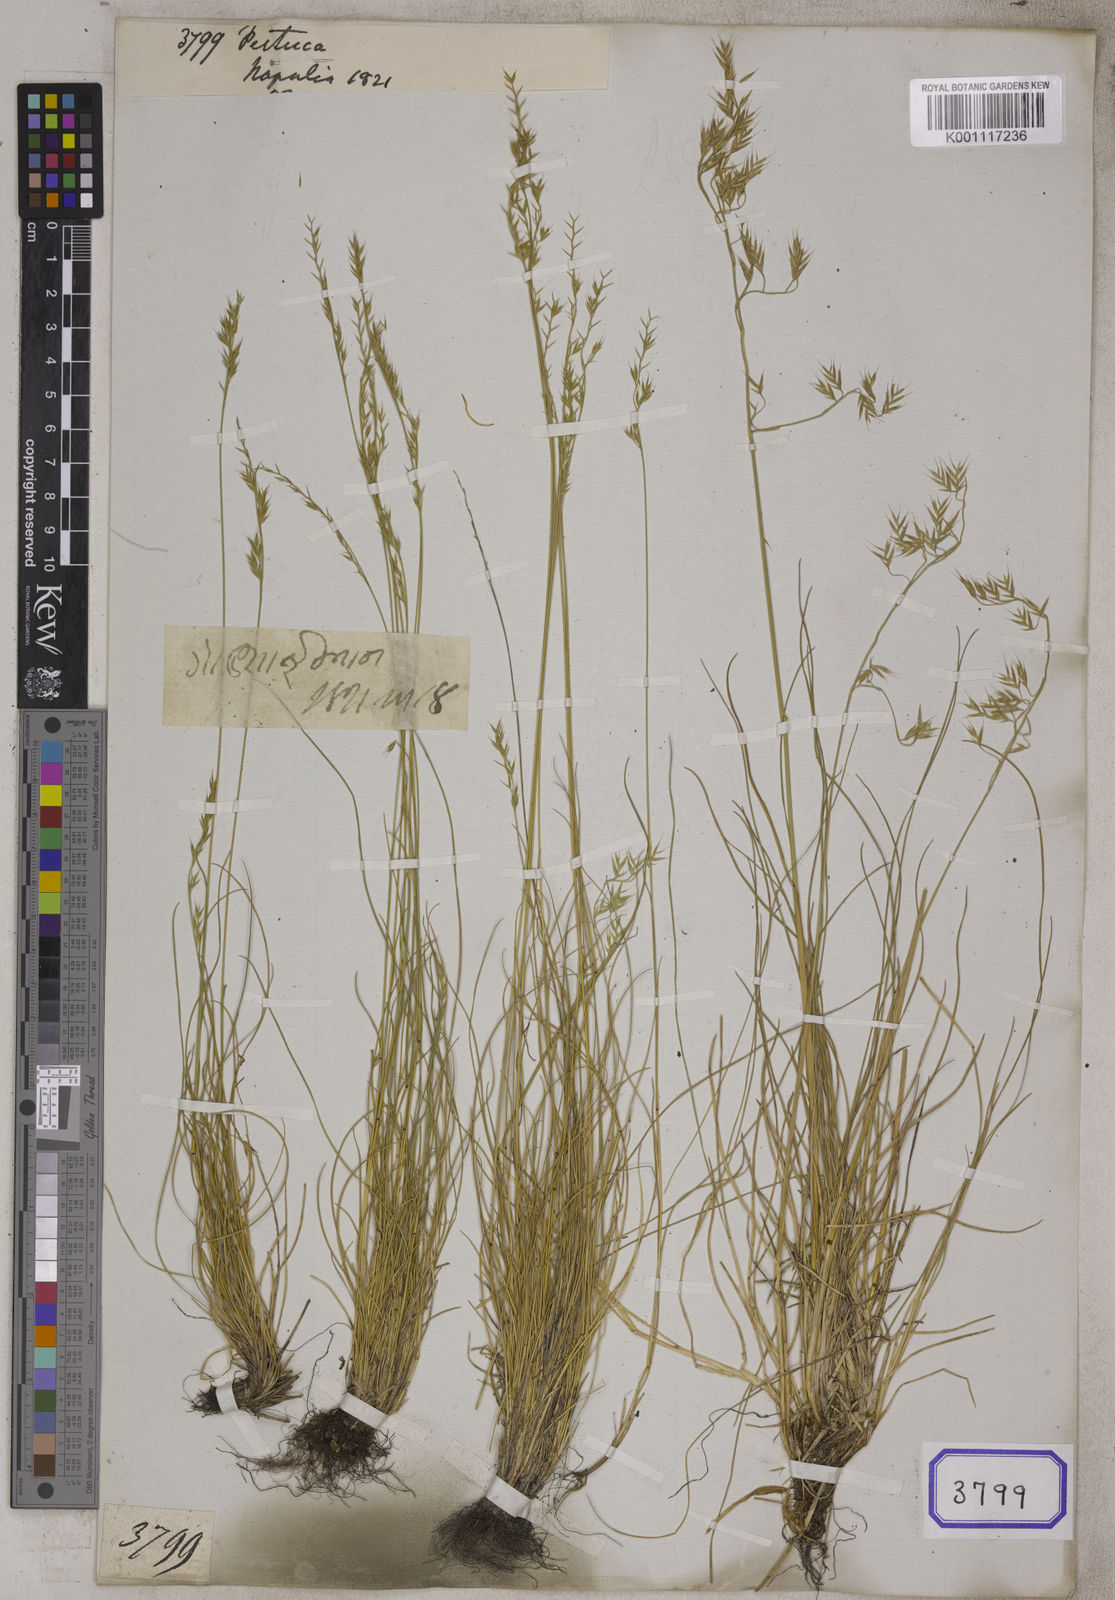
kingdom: Plantae
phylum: Tracheophyta
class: Liliopsida
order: Poales
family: Poaceae
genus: Festuca
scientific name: Festuca
